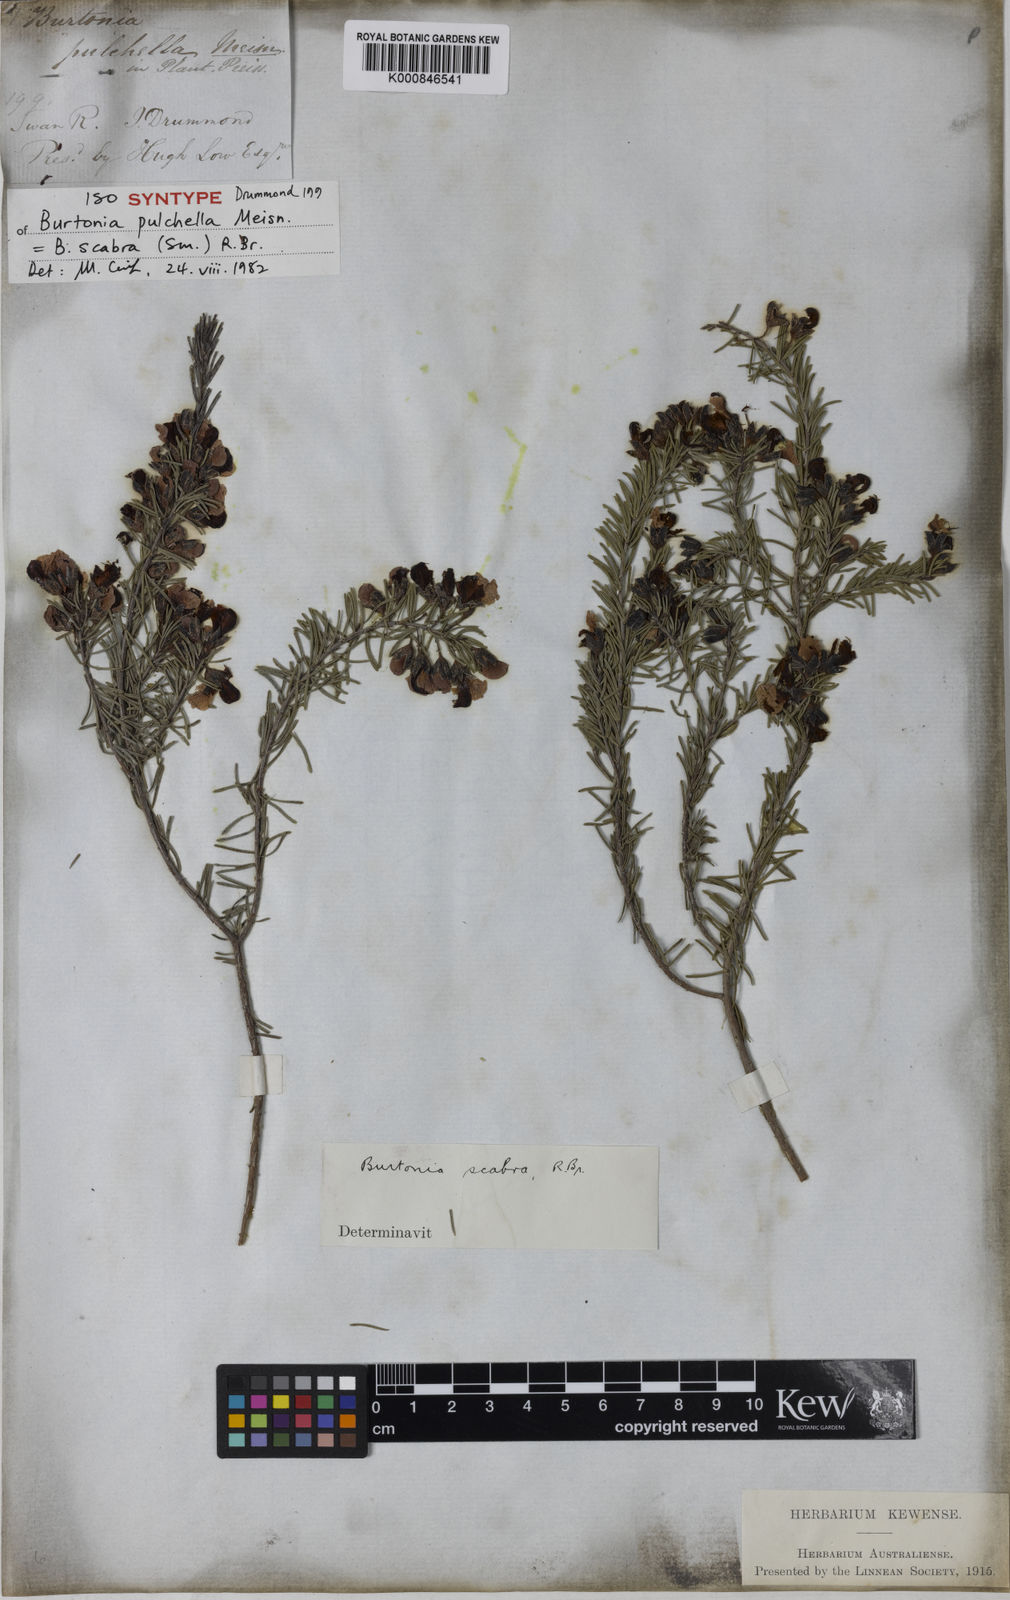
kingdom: Plantae
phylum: Tracheophyta
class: Magnoliopsida
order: Fabales
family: Fabaceae
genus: Gompholobium
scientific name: Gompholobium scabrum
